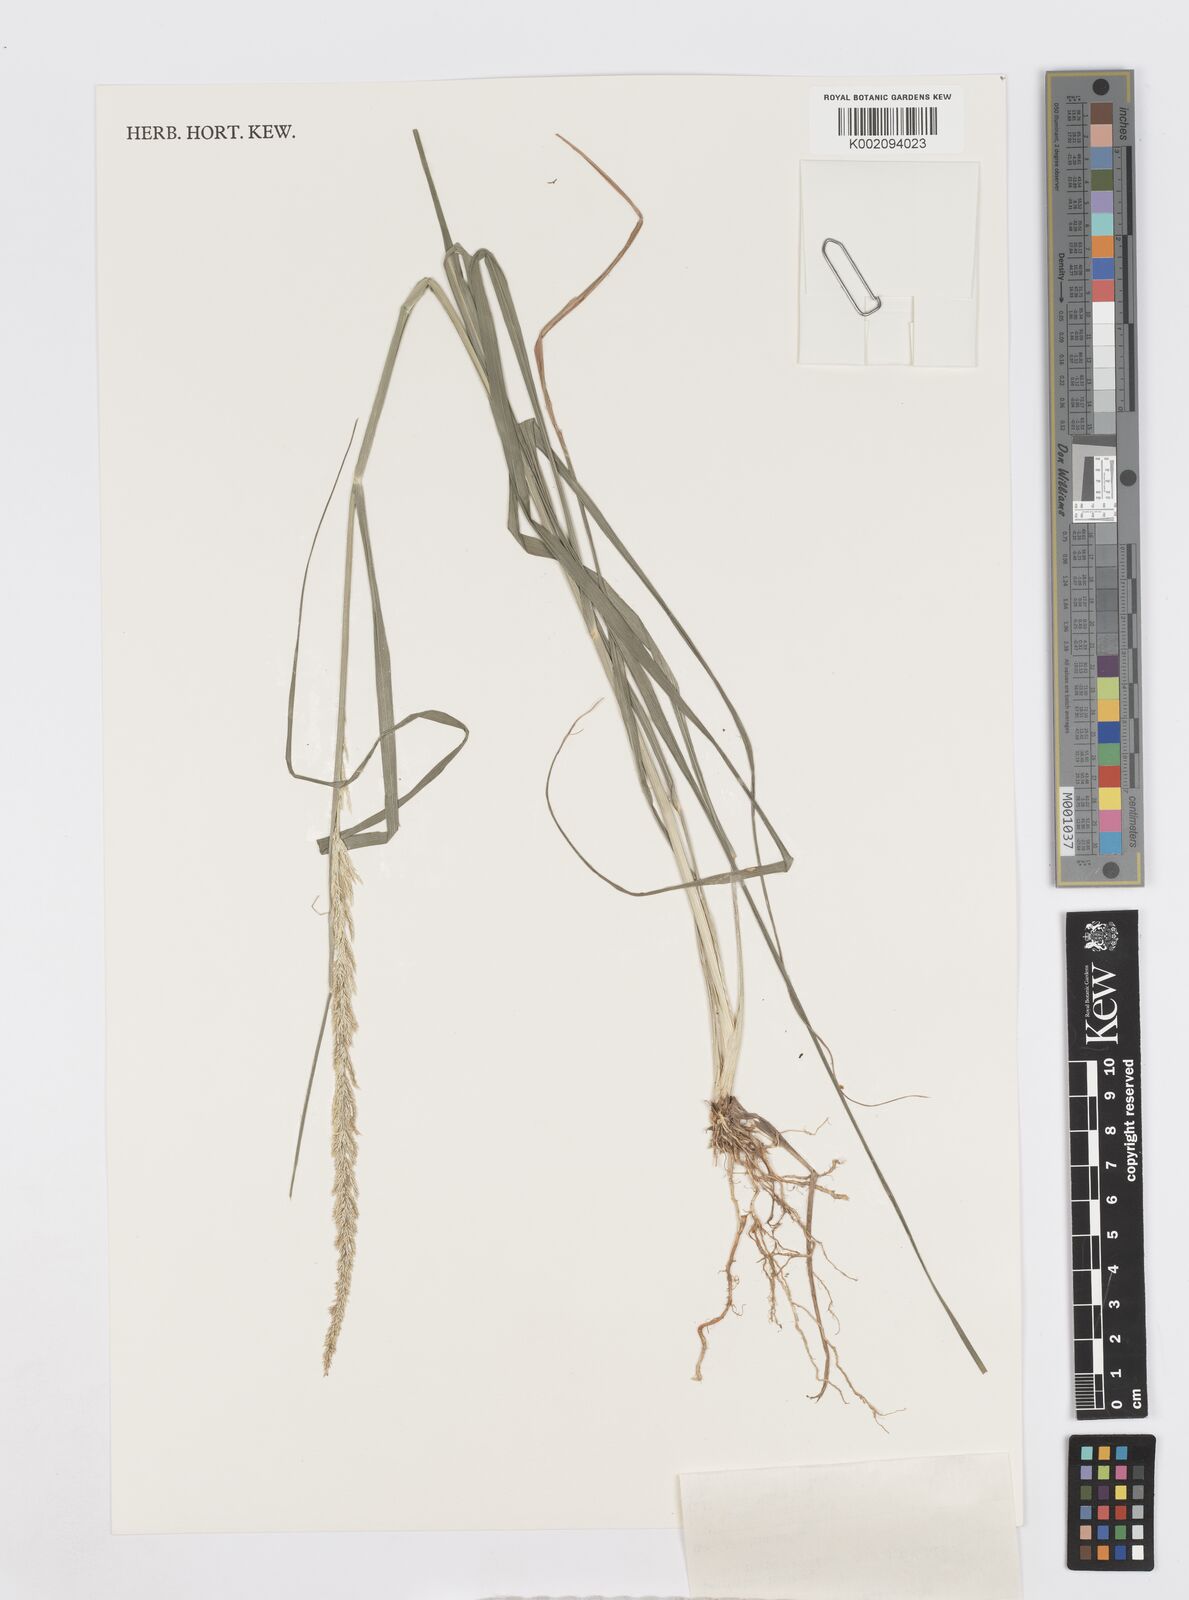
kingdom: Plantae
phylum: Tracheophyta
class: Liliopsida
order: Poales
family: Poaceae
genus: Sporobolus
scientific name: Sporobolus fertilis
